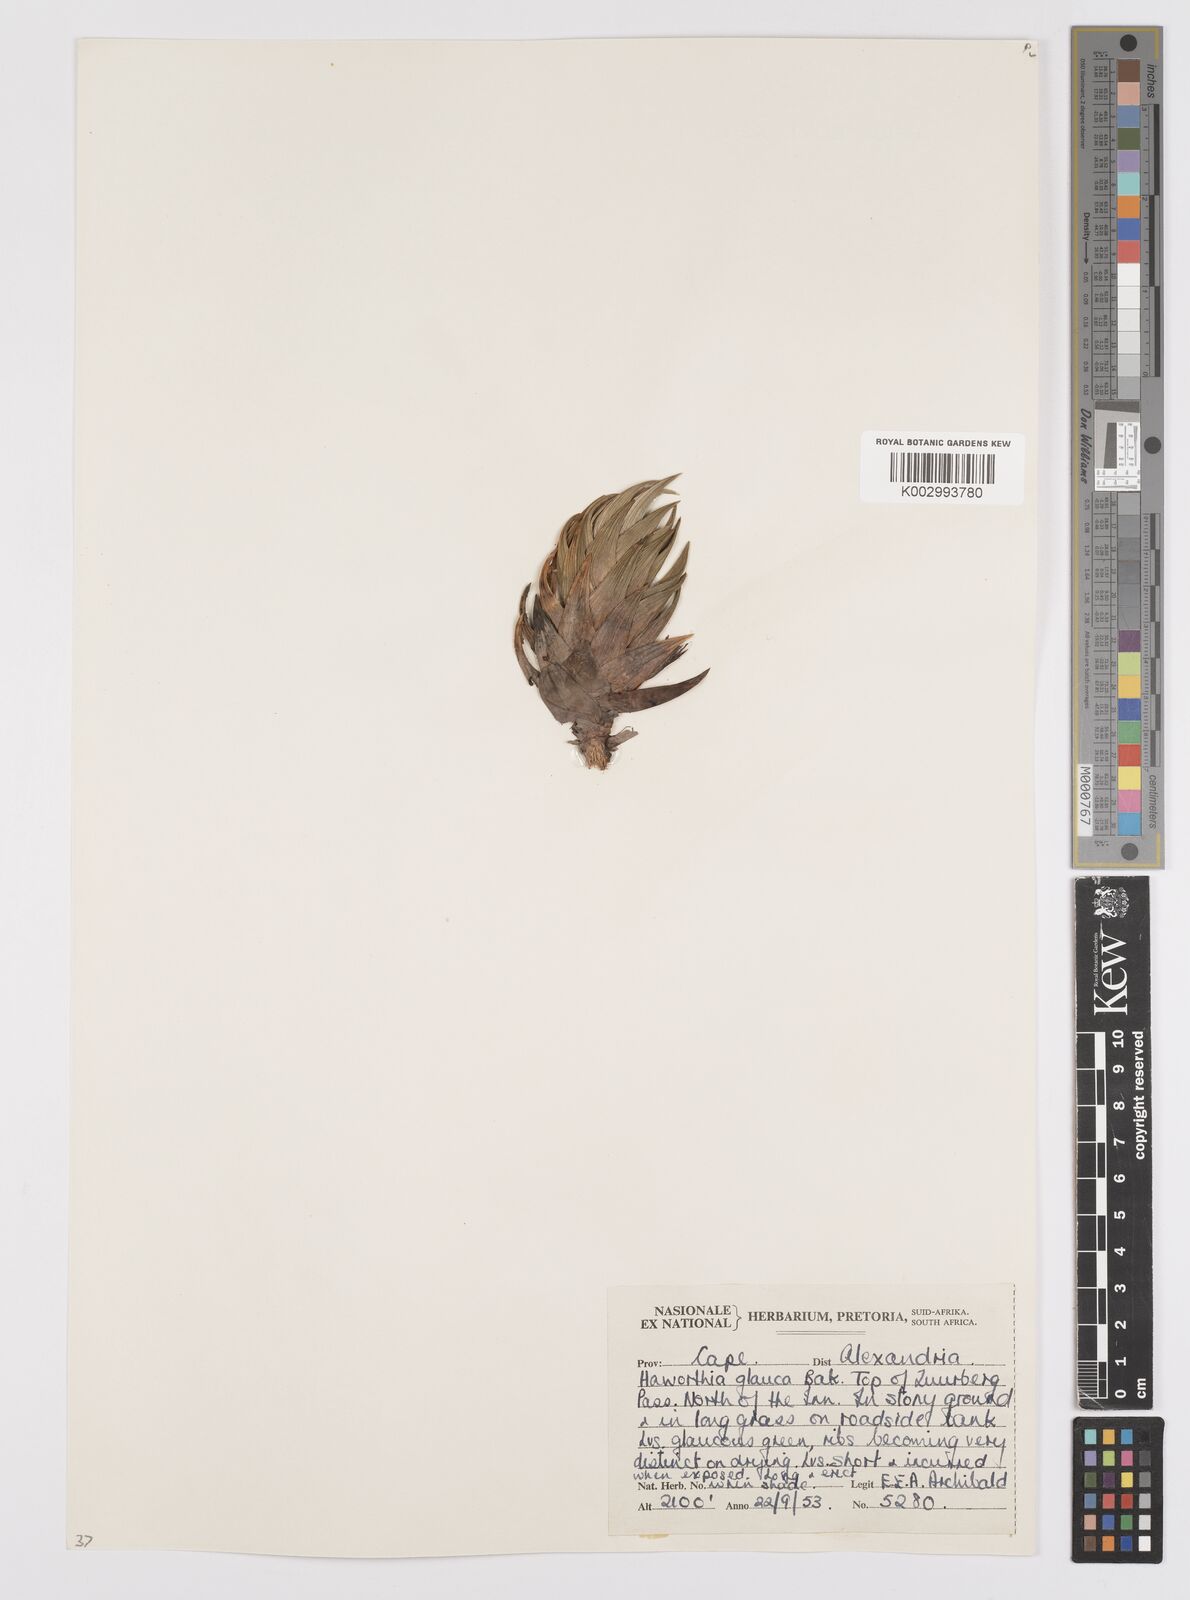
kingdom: Plantae
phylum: Tracheophyta
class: Liliopsida
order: Asparagales
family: Asphodelaceae
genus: Haworthiopsis
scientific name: Haworthiopsis glauca
